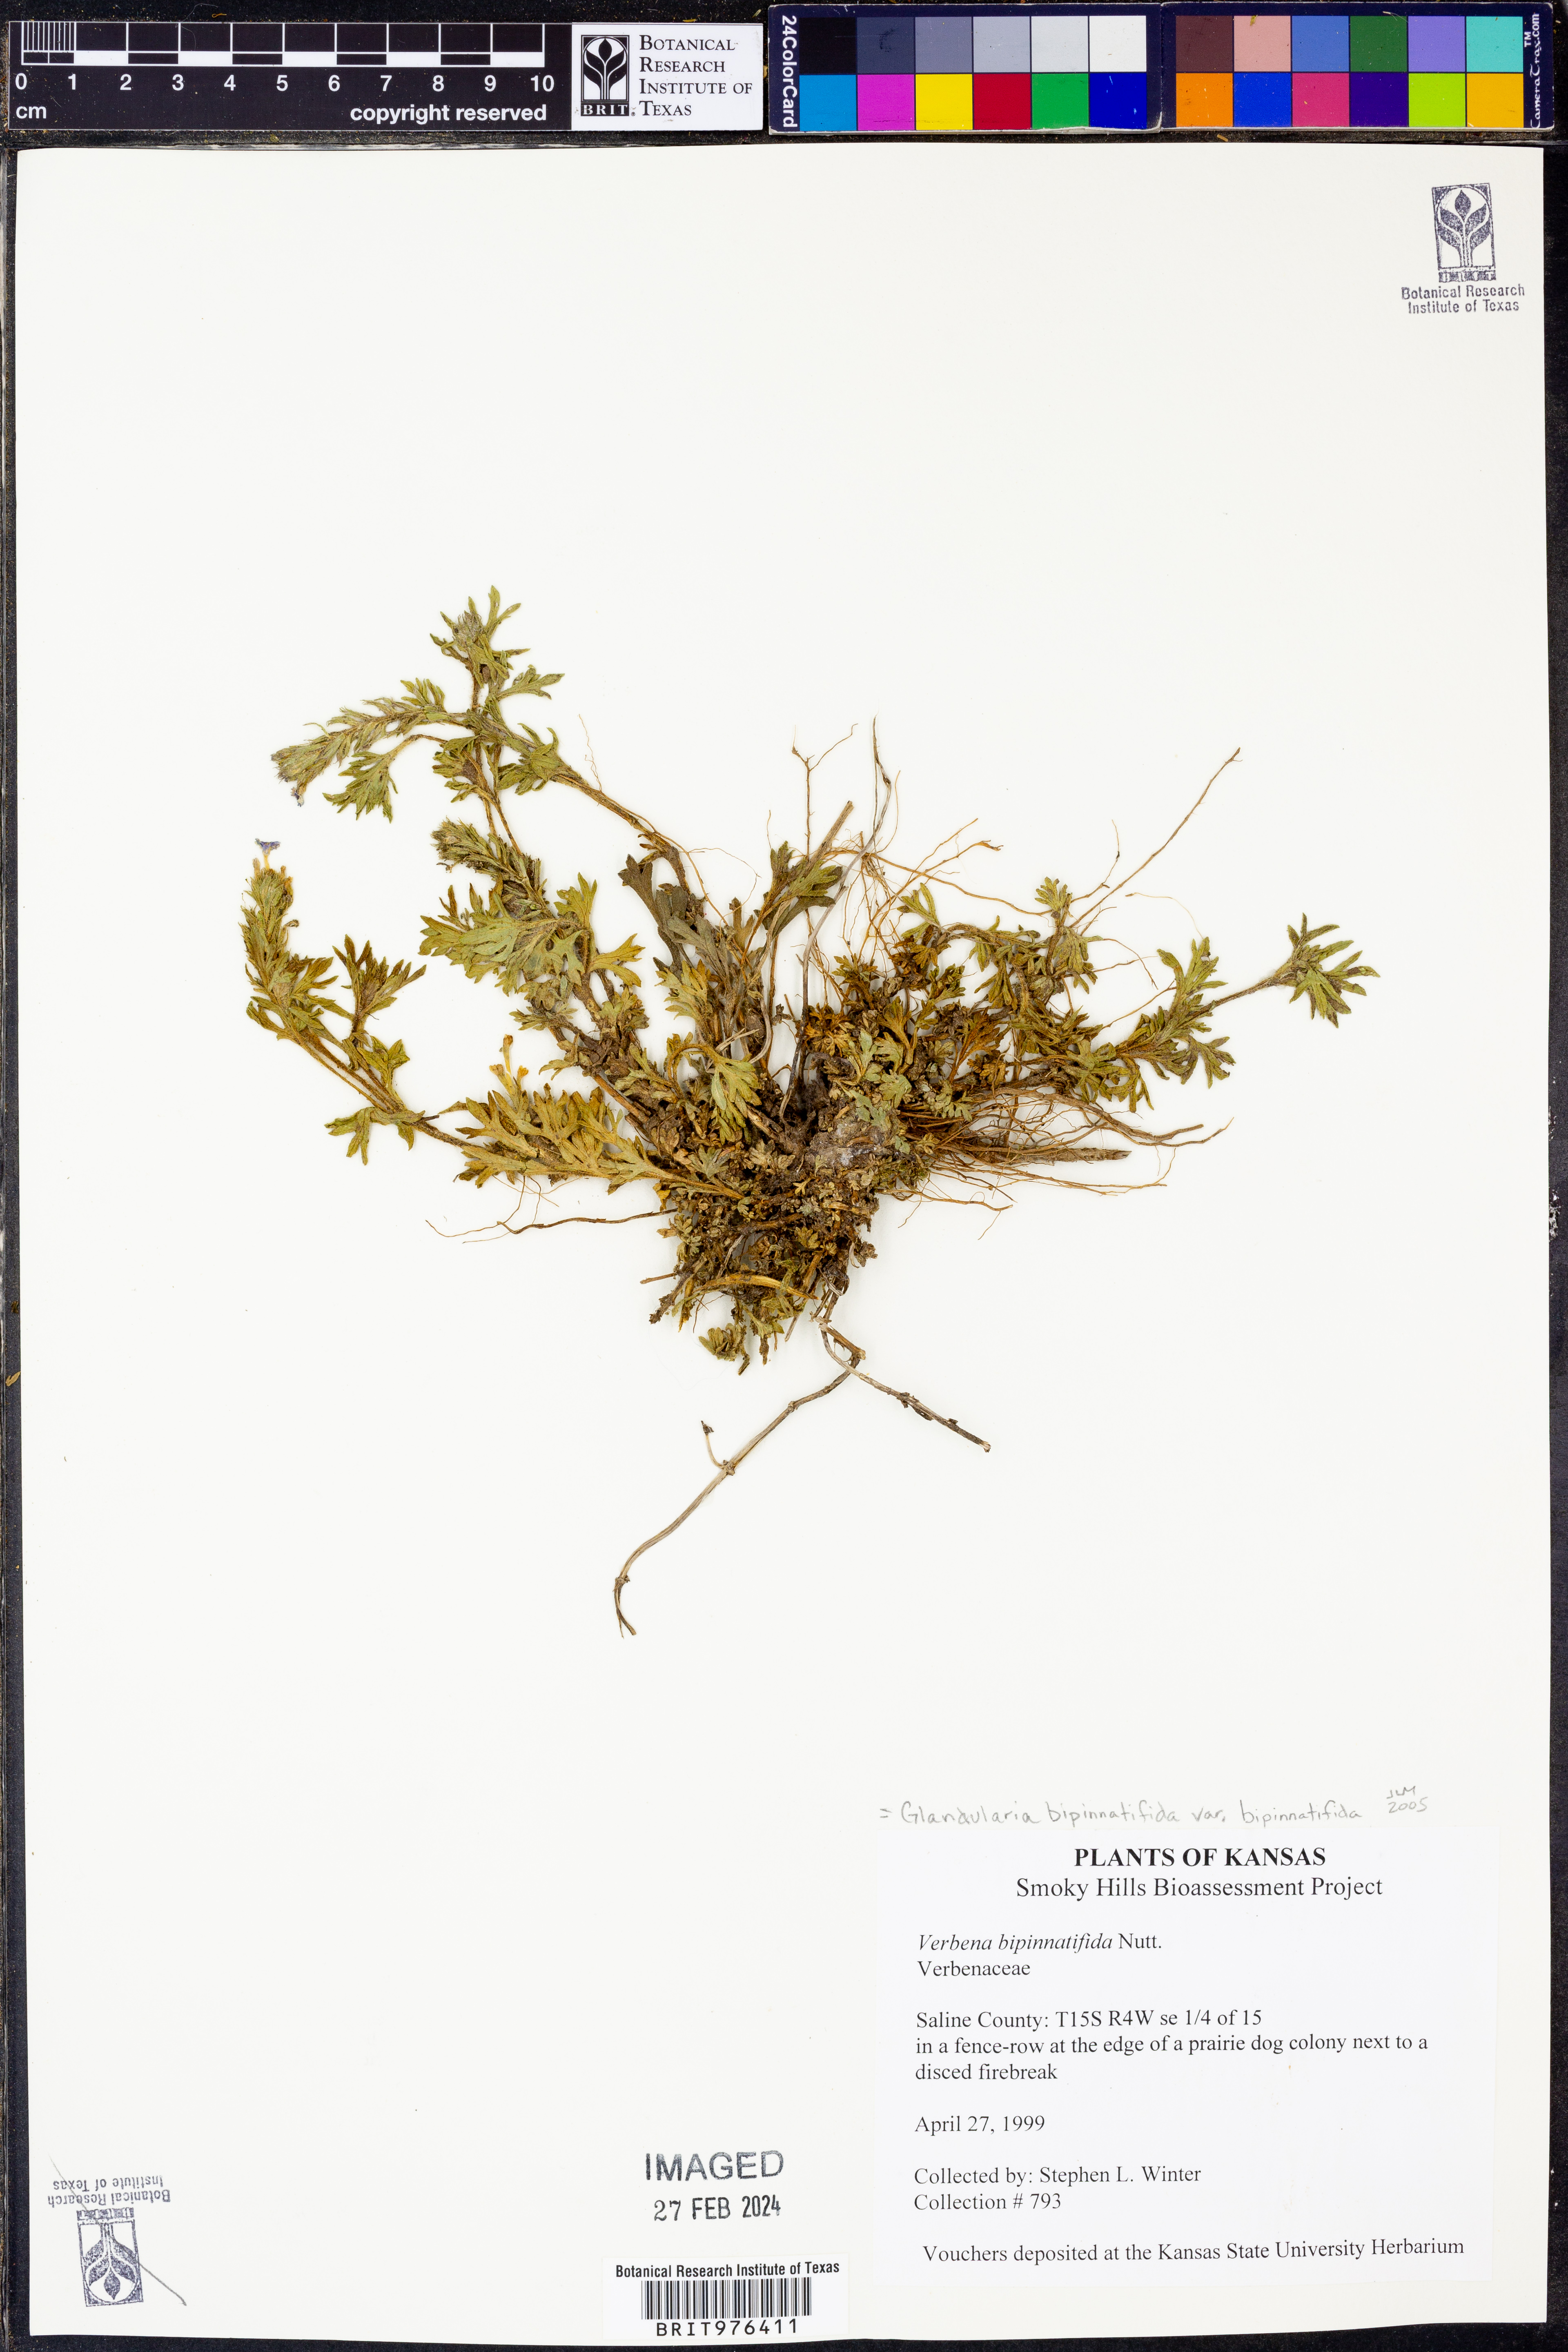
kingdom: Plantae
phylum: Tracheophyta
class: Magnoliopsida
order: Lamiales
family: Verbenaceae
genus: Verbena
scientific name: Verbena bipinnatifida
